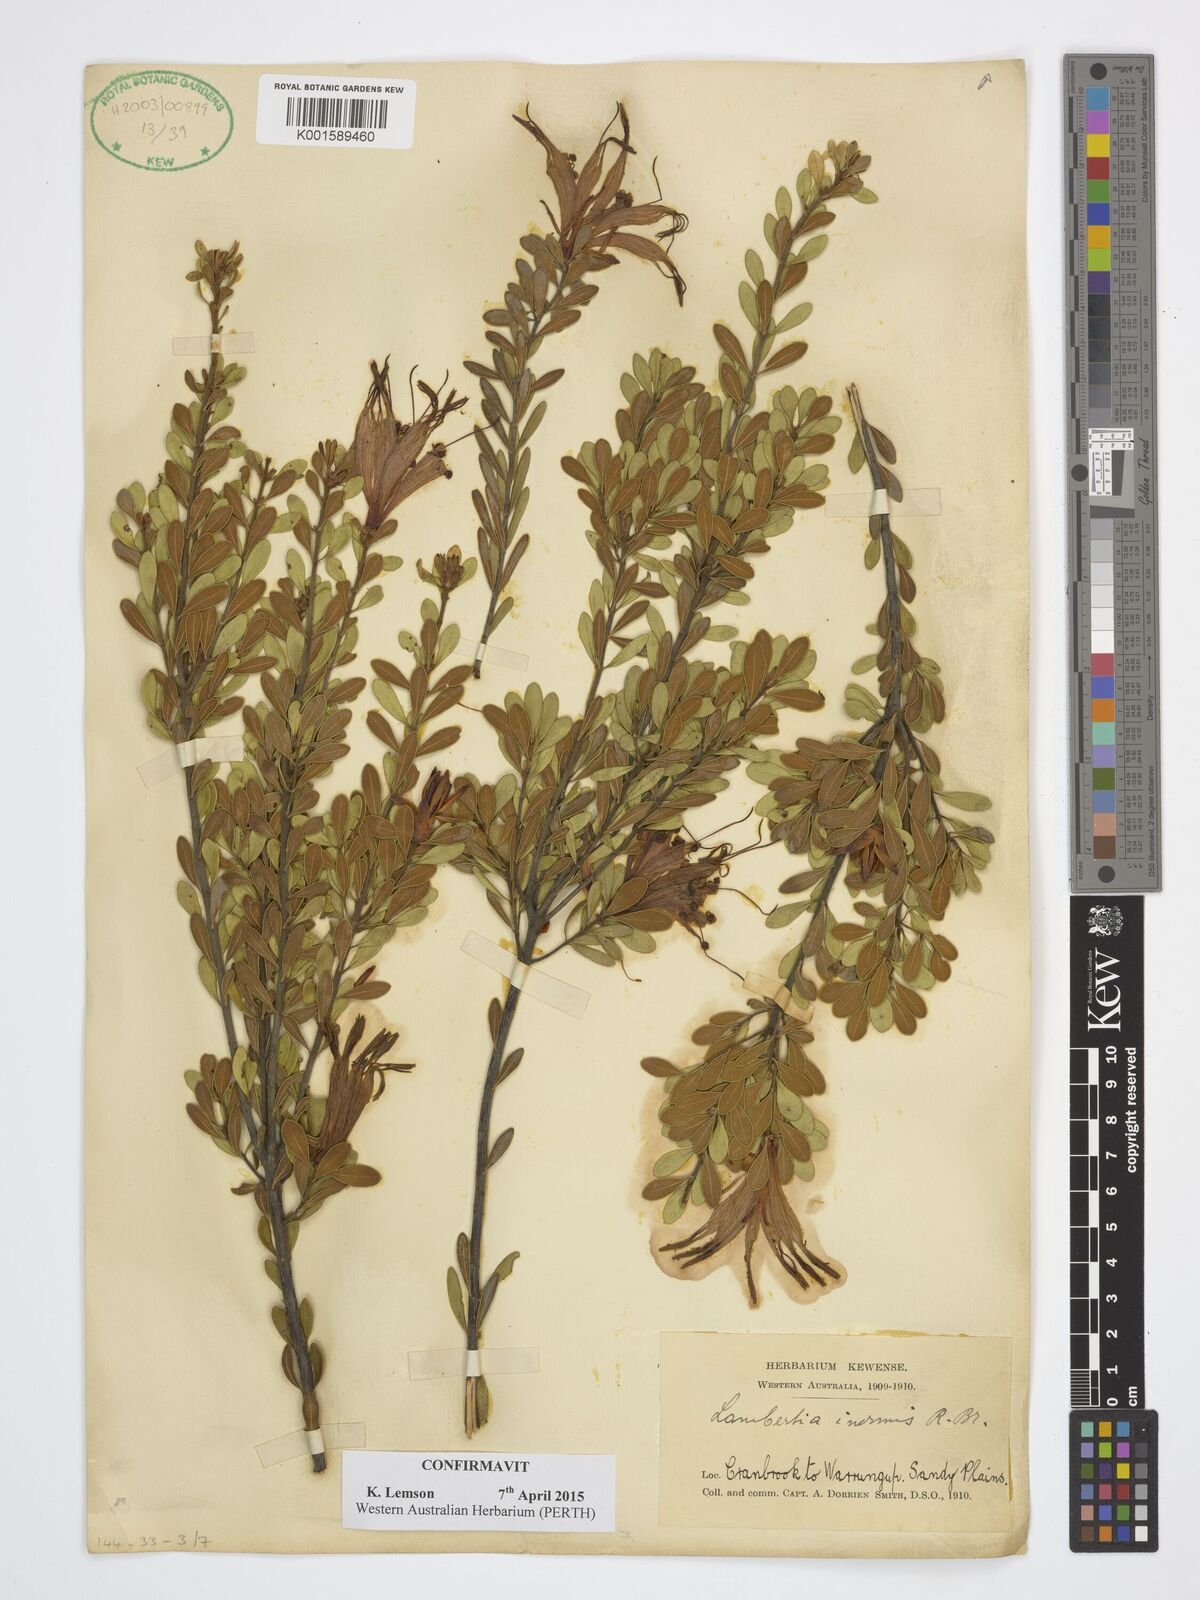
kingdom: Plantae
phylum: Tracheophyta
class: Magnoliopsida
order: Proteales
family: Proteaceae
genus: Lambertia
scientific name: Lambertia inermis
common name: Chittick
